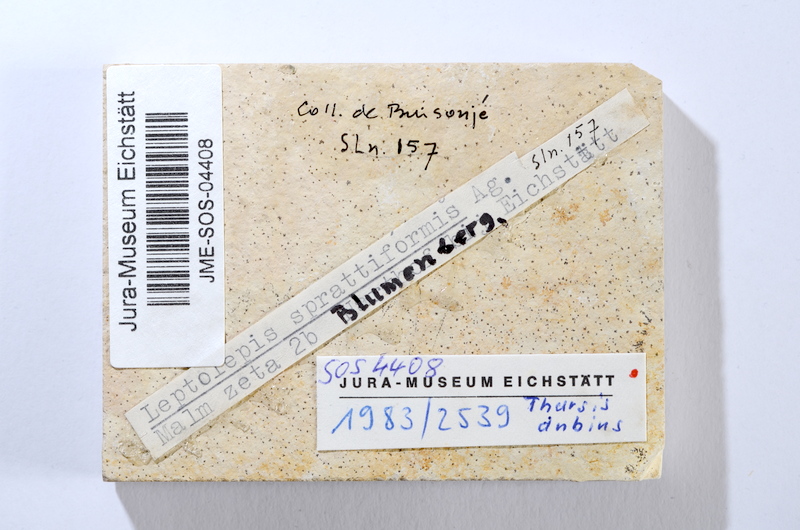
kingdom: Animalia
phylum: Chordata
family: Ascalaboidae
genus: Tharsis
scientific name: Tharsis dubius
